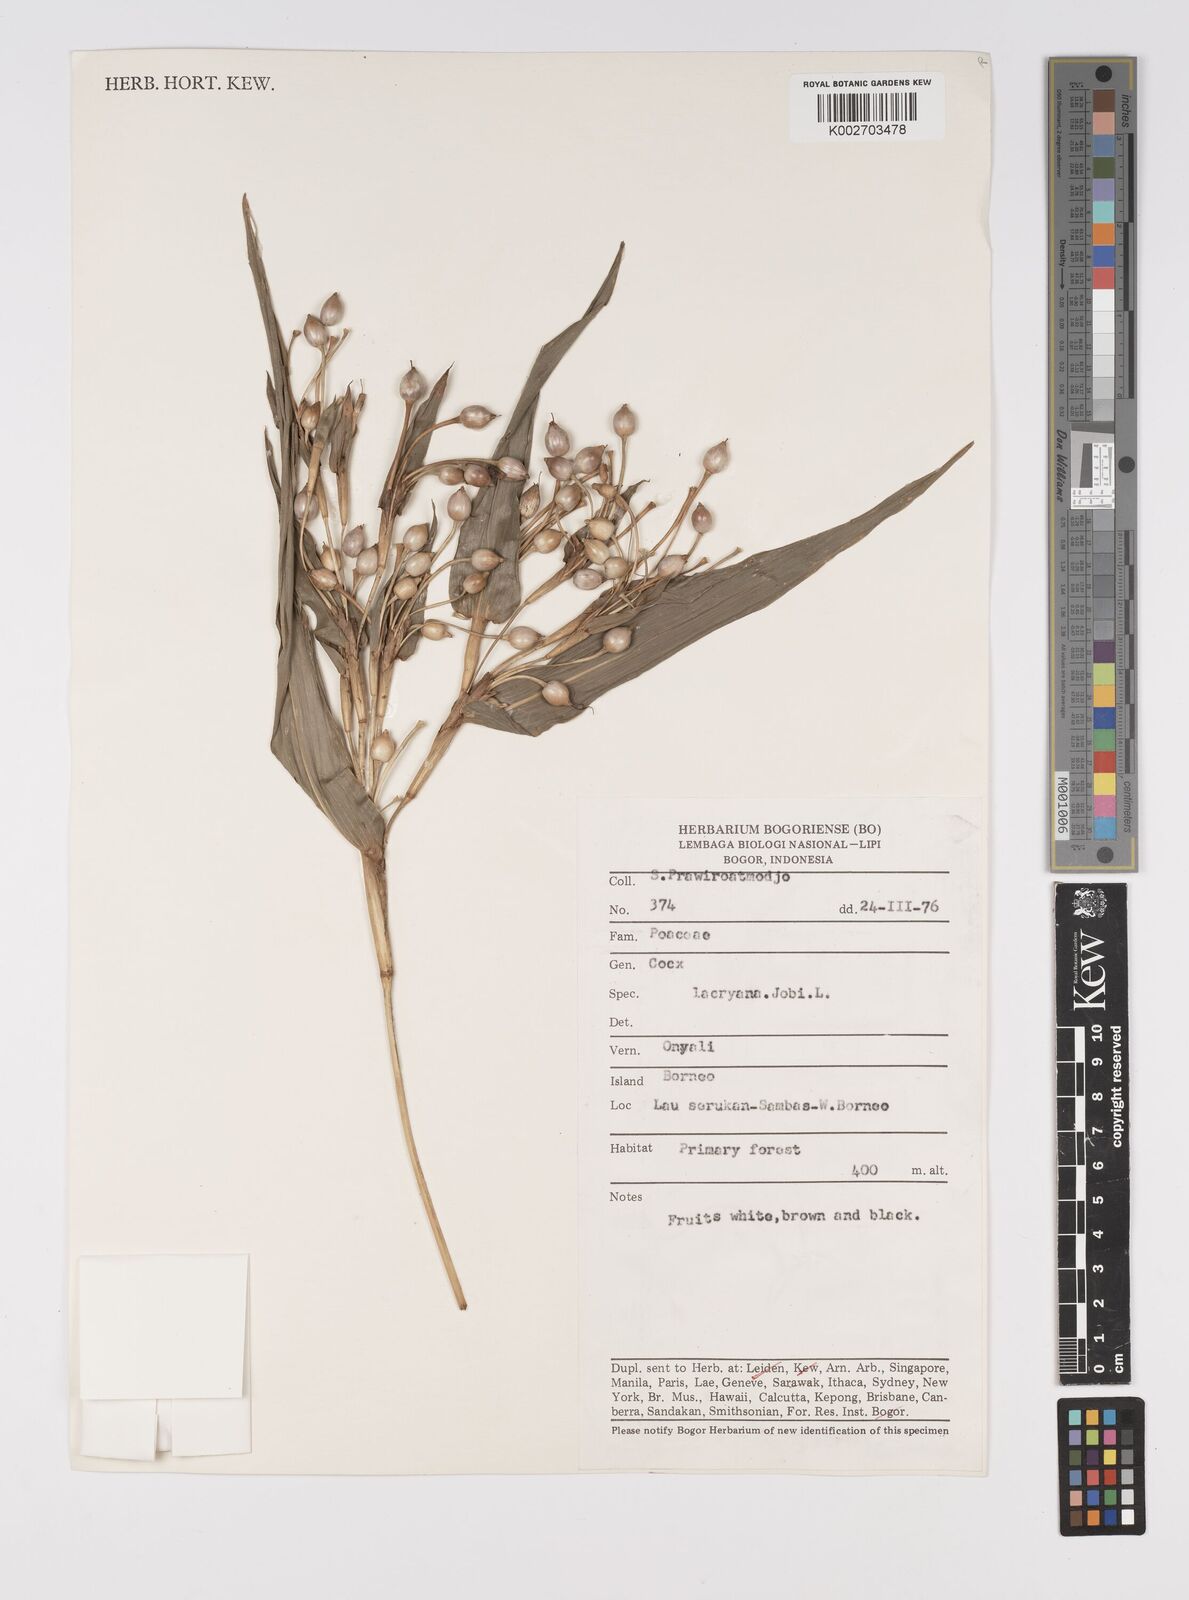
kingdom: Plantae
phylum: Tracheophyta
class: Liliopsida
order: Poales
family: Poaceae
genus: Coix
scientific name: Coix lacryma-jobi
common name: Job's tears
